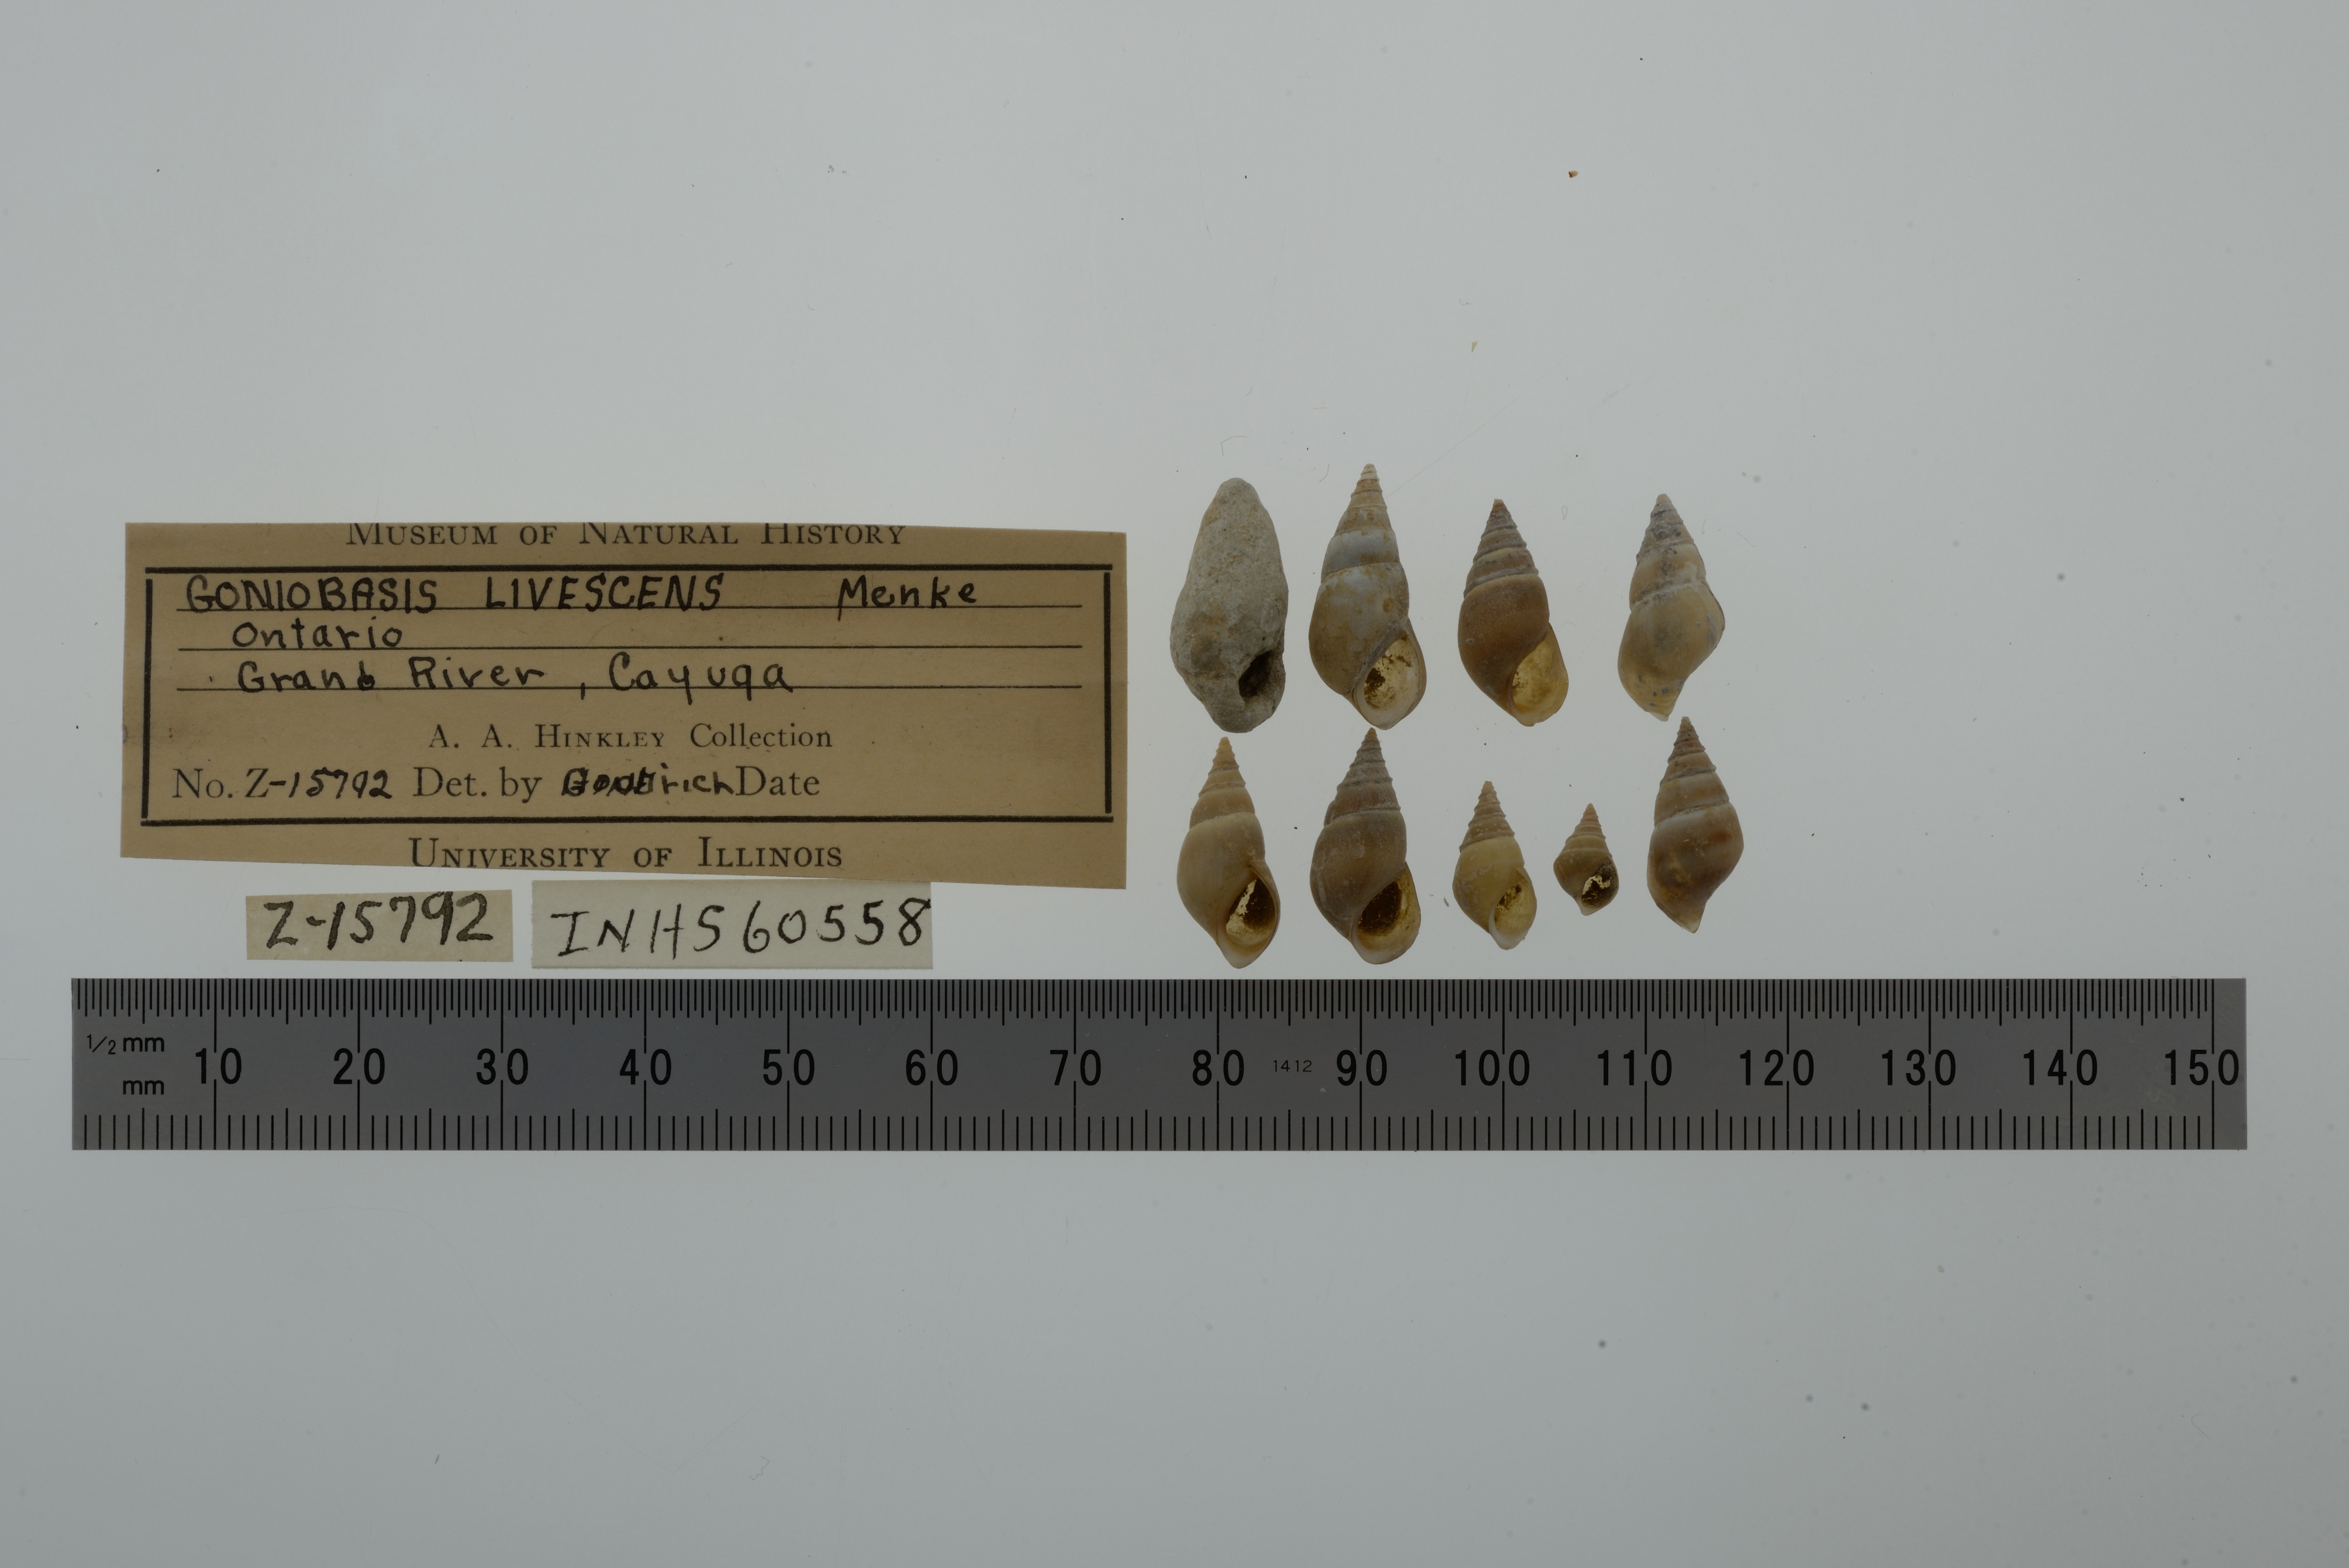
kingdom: Animalia
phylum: Mollusca
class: Gastropoda
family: Pleuroceridae
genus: Elimia
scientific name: Elimia livescens
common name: Liver elimia
